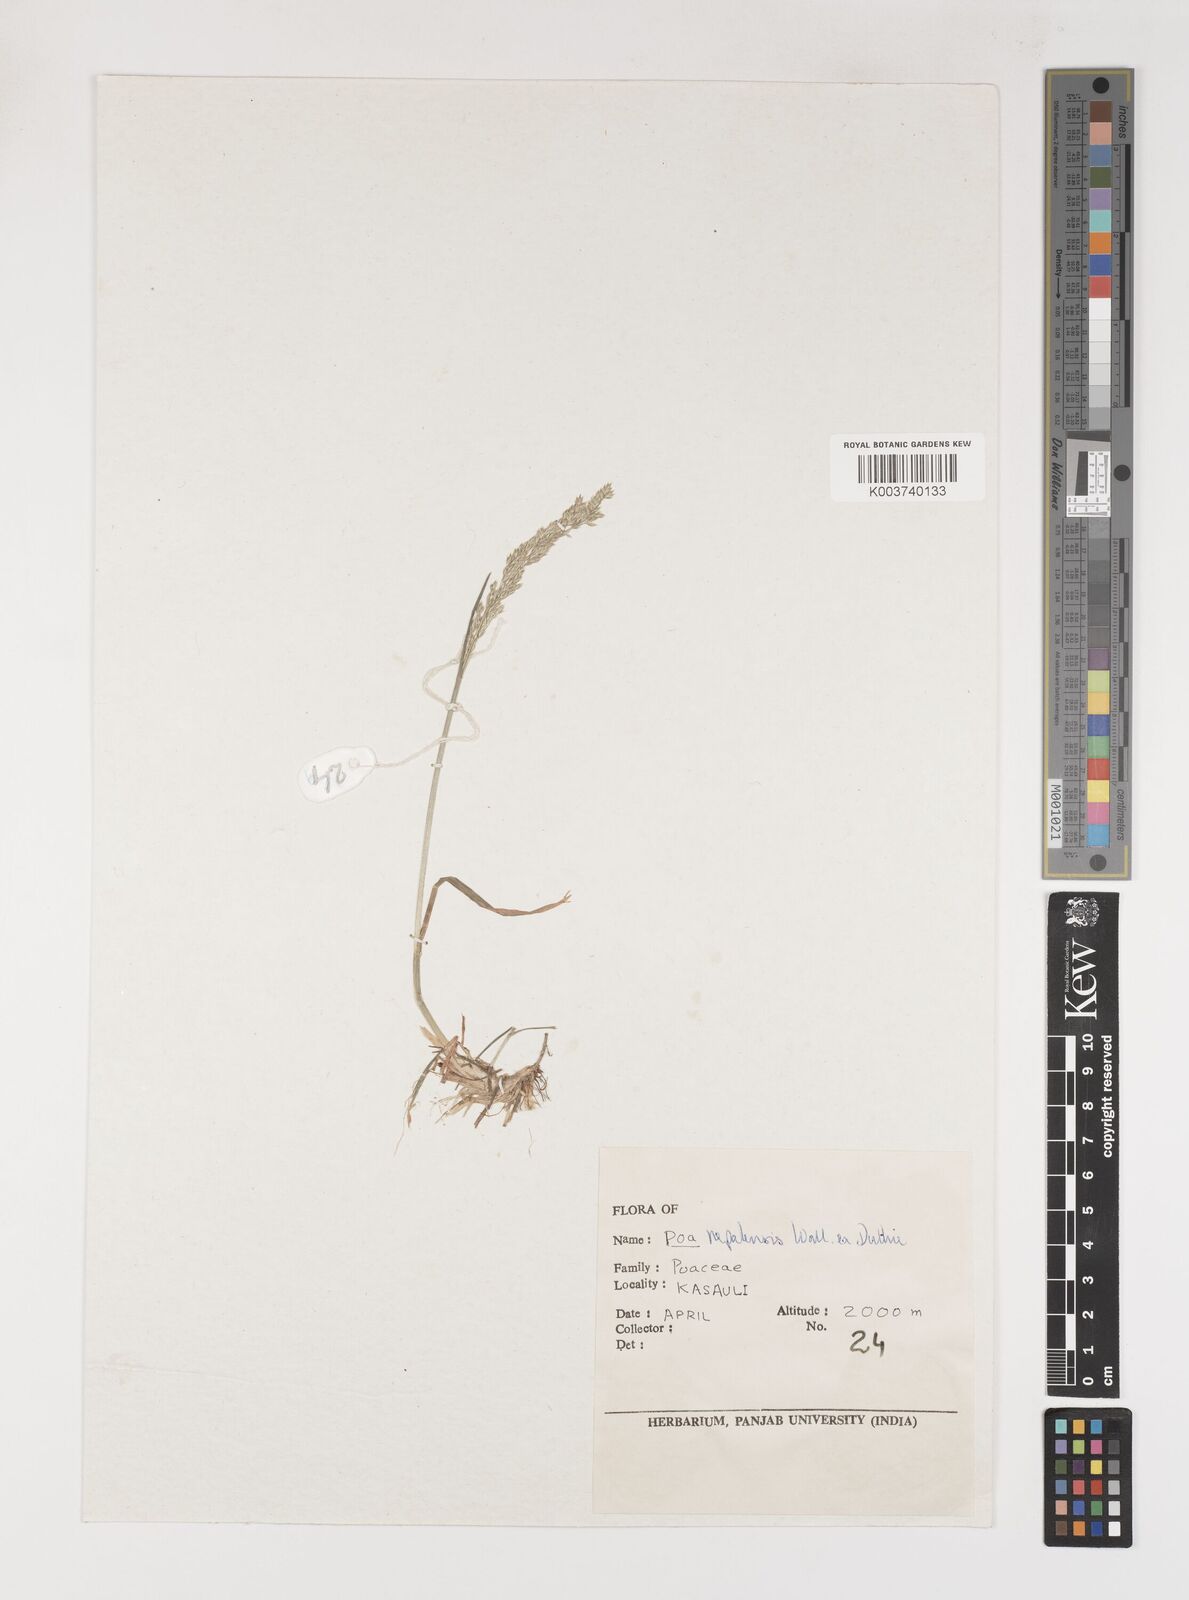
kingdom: Plantae
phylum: Tracheophyta
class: Liliopsida
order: Poales
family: Poaceae
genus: Poa
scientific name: Poa nepalensis
